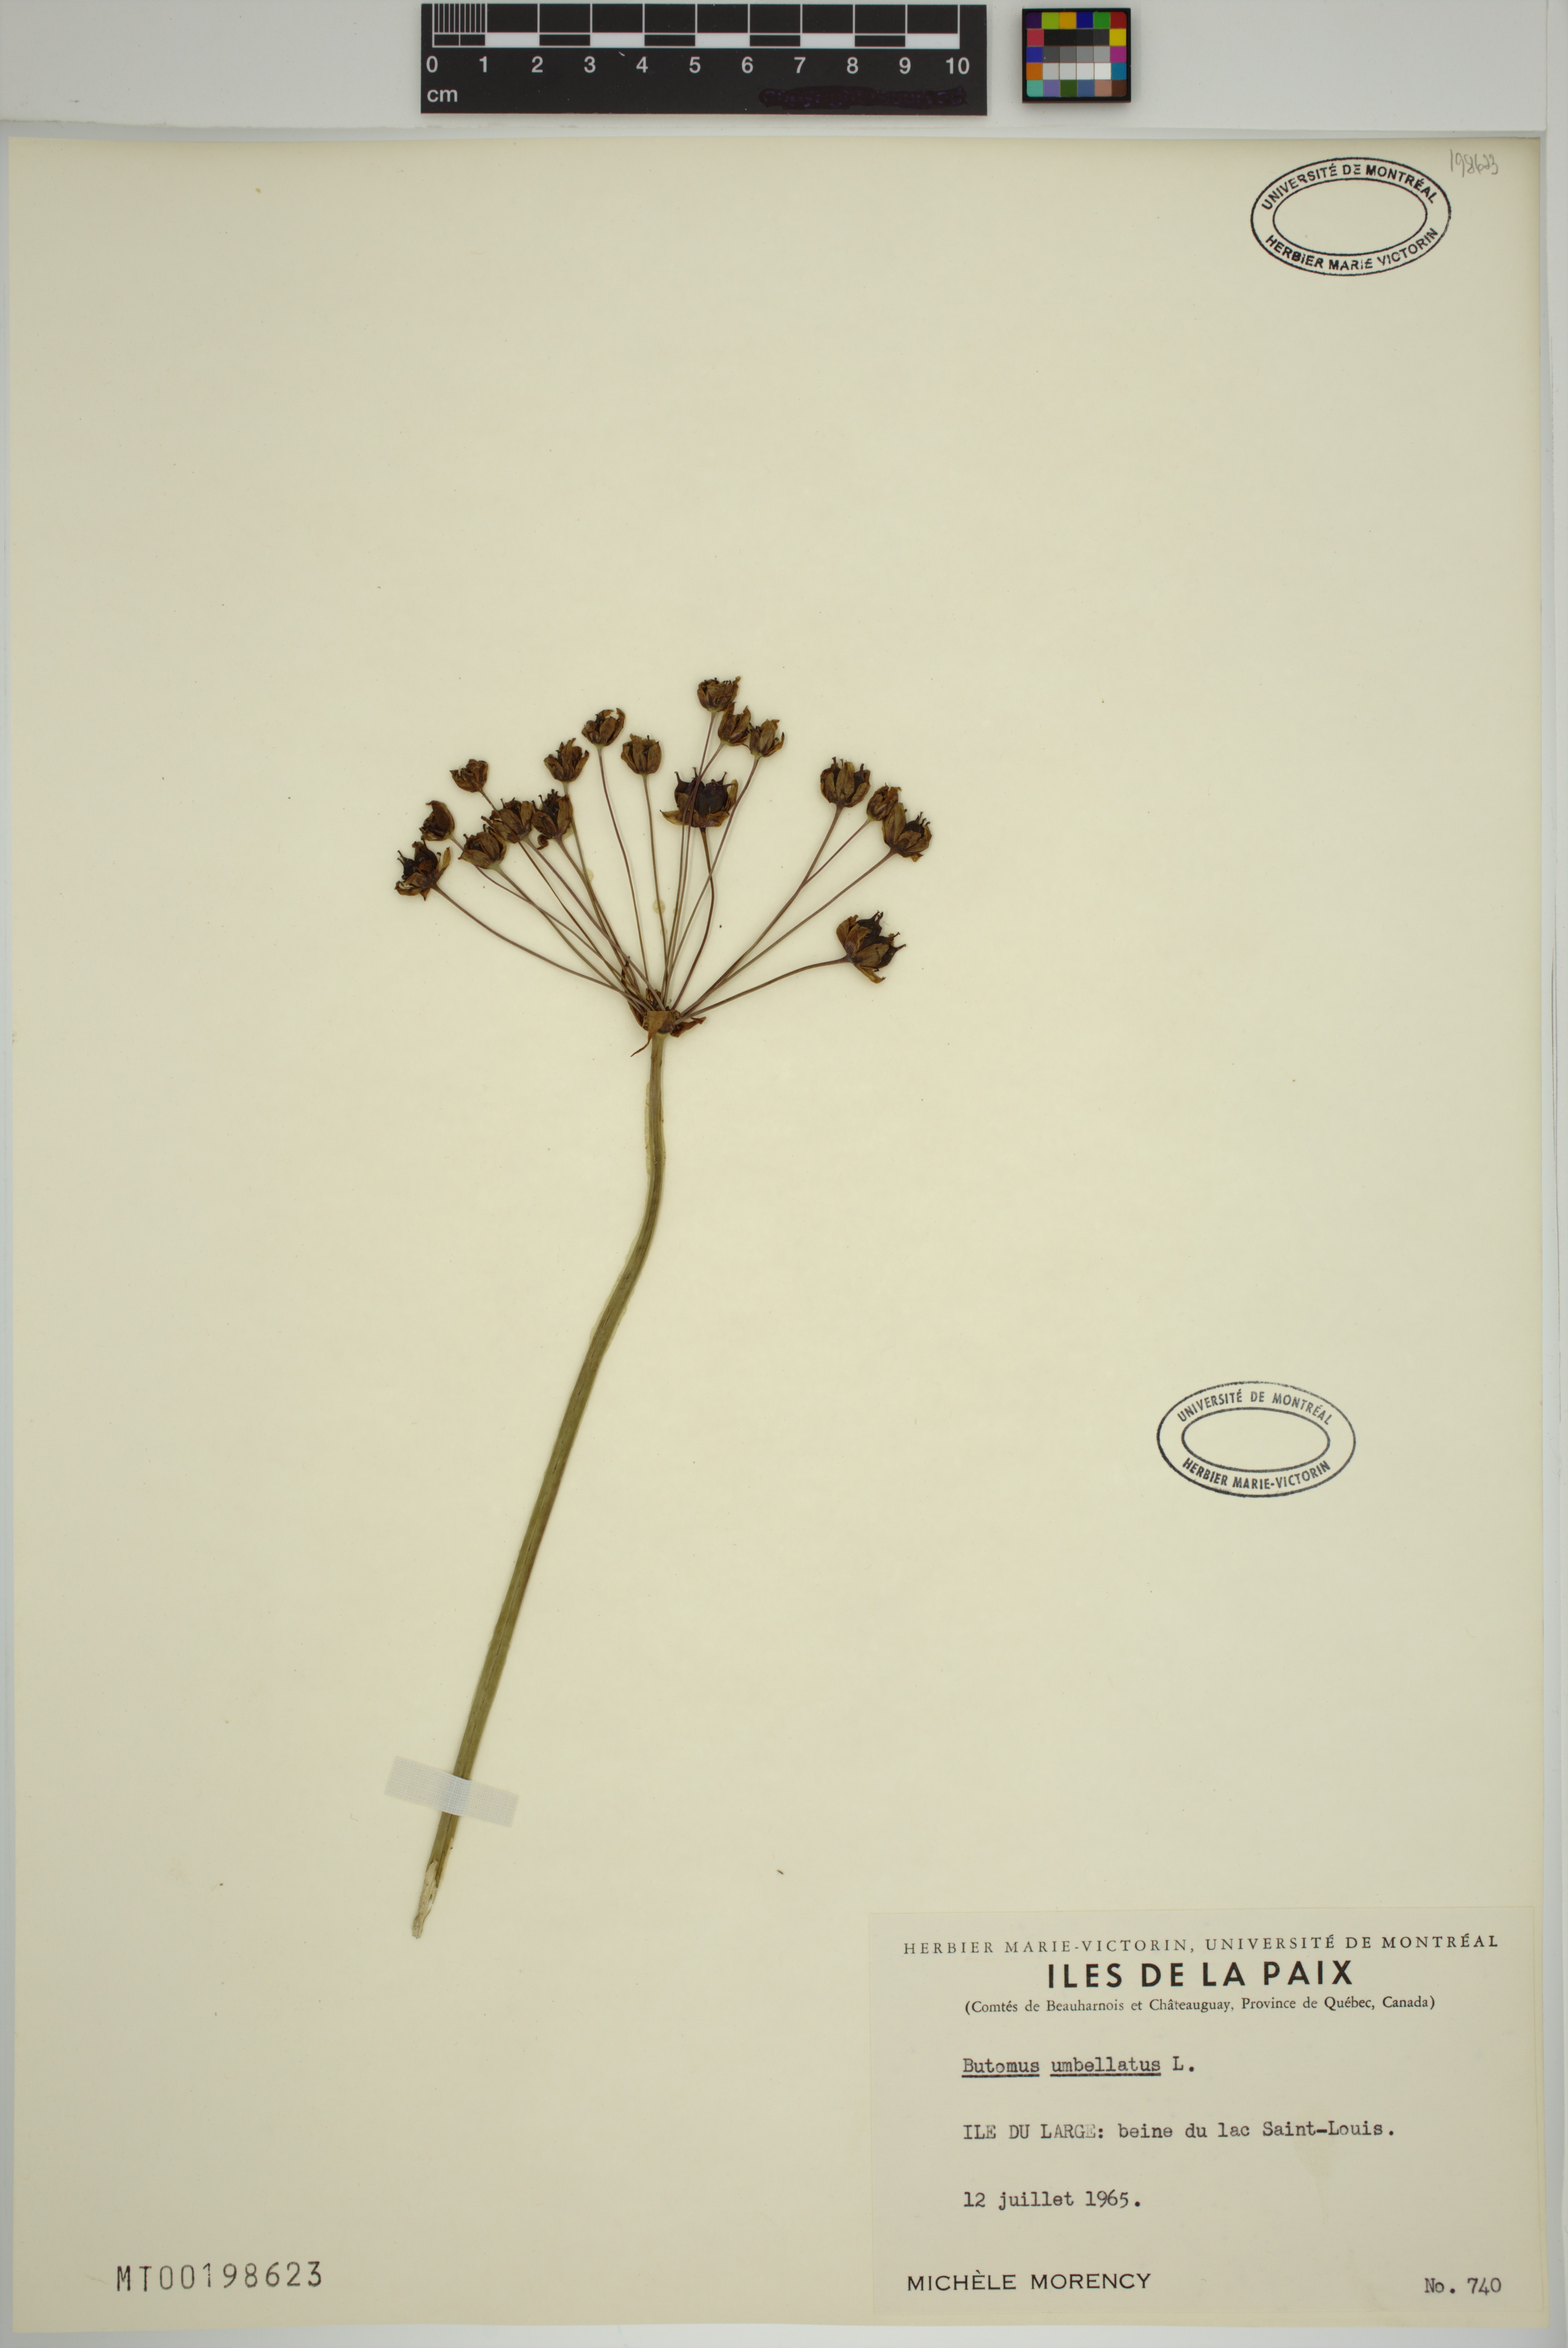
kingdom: Plantae
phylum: Tracheophyta
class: Liliopsida
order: Alismatales
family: Butomaceae
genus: Butomus
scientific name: Butomus umbellatus
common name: Flowering-rush
